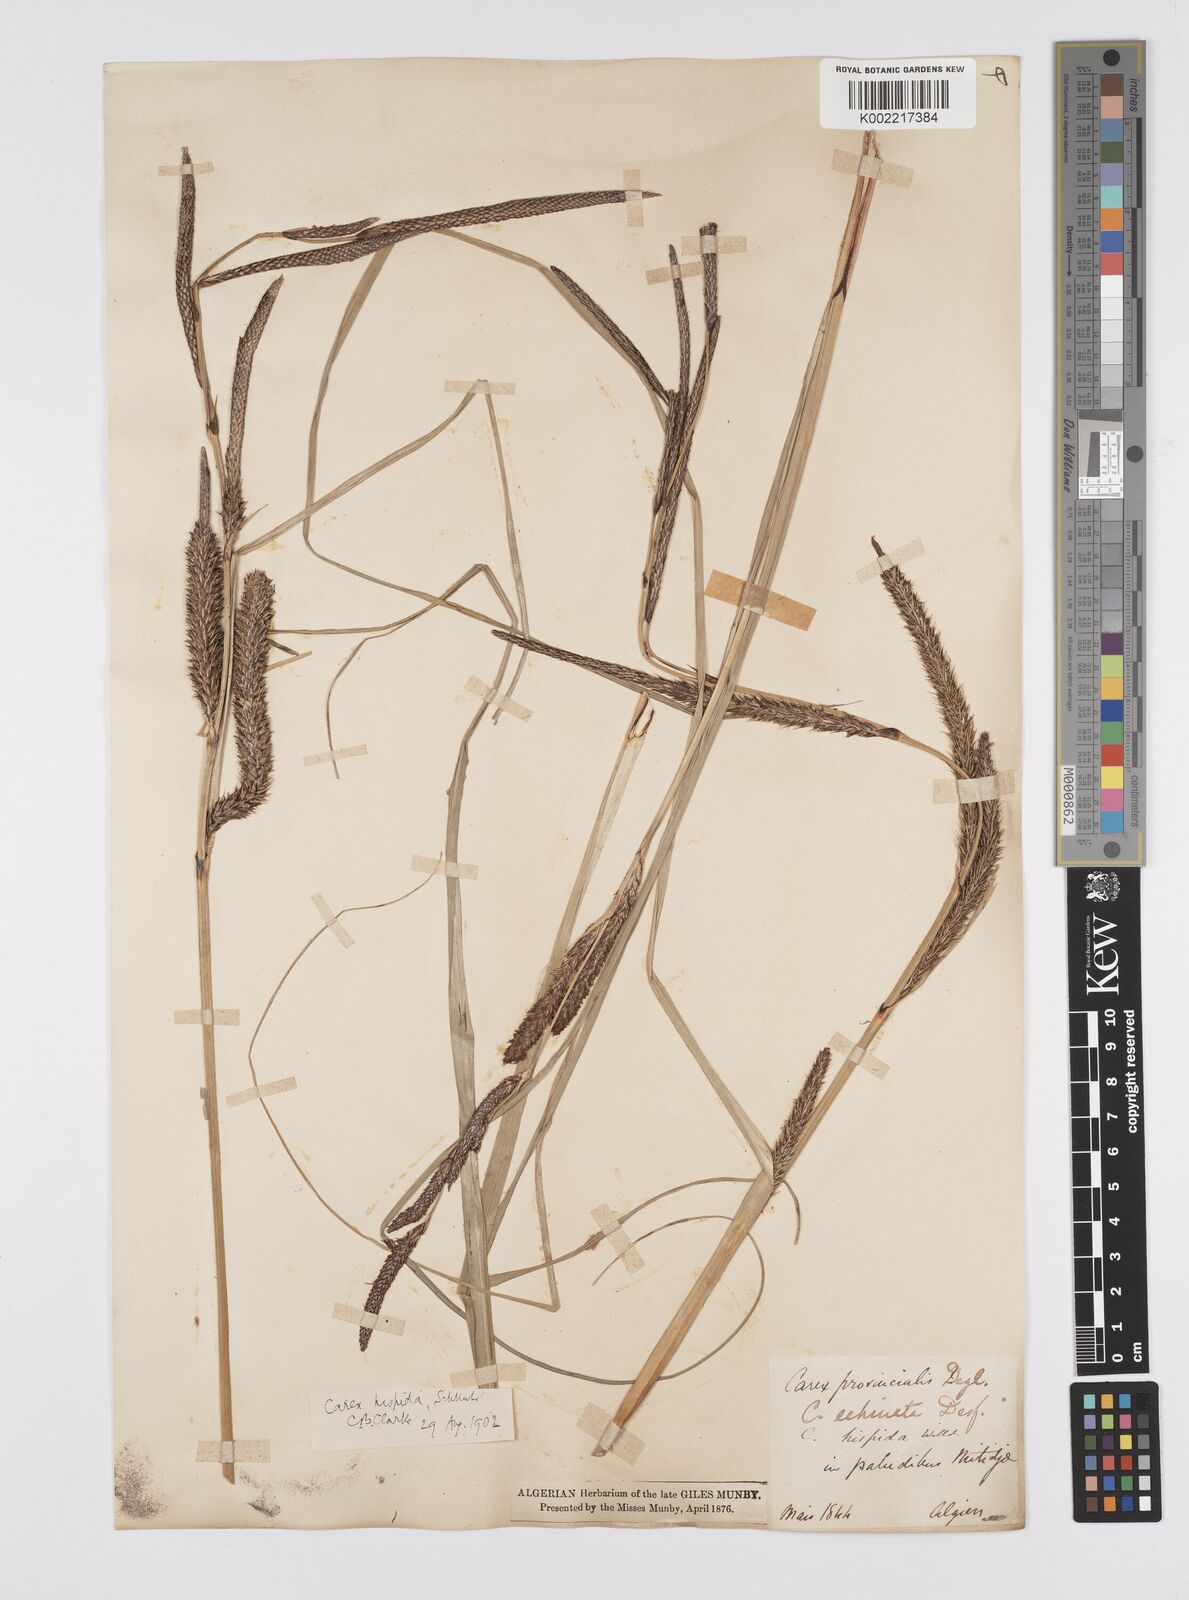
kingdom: Plantae
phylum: Tracheophyta
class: Liliopsida
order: Poales
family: Cyperaceae
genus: Carex
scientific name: Carex hispida
